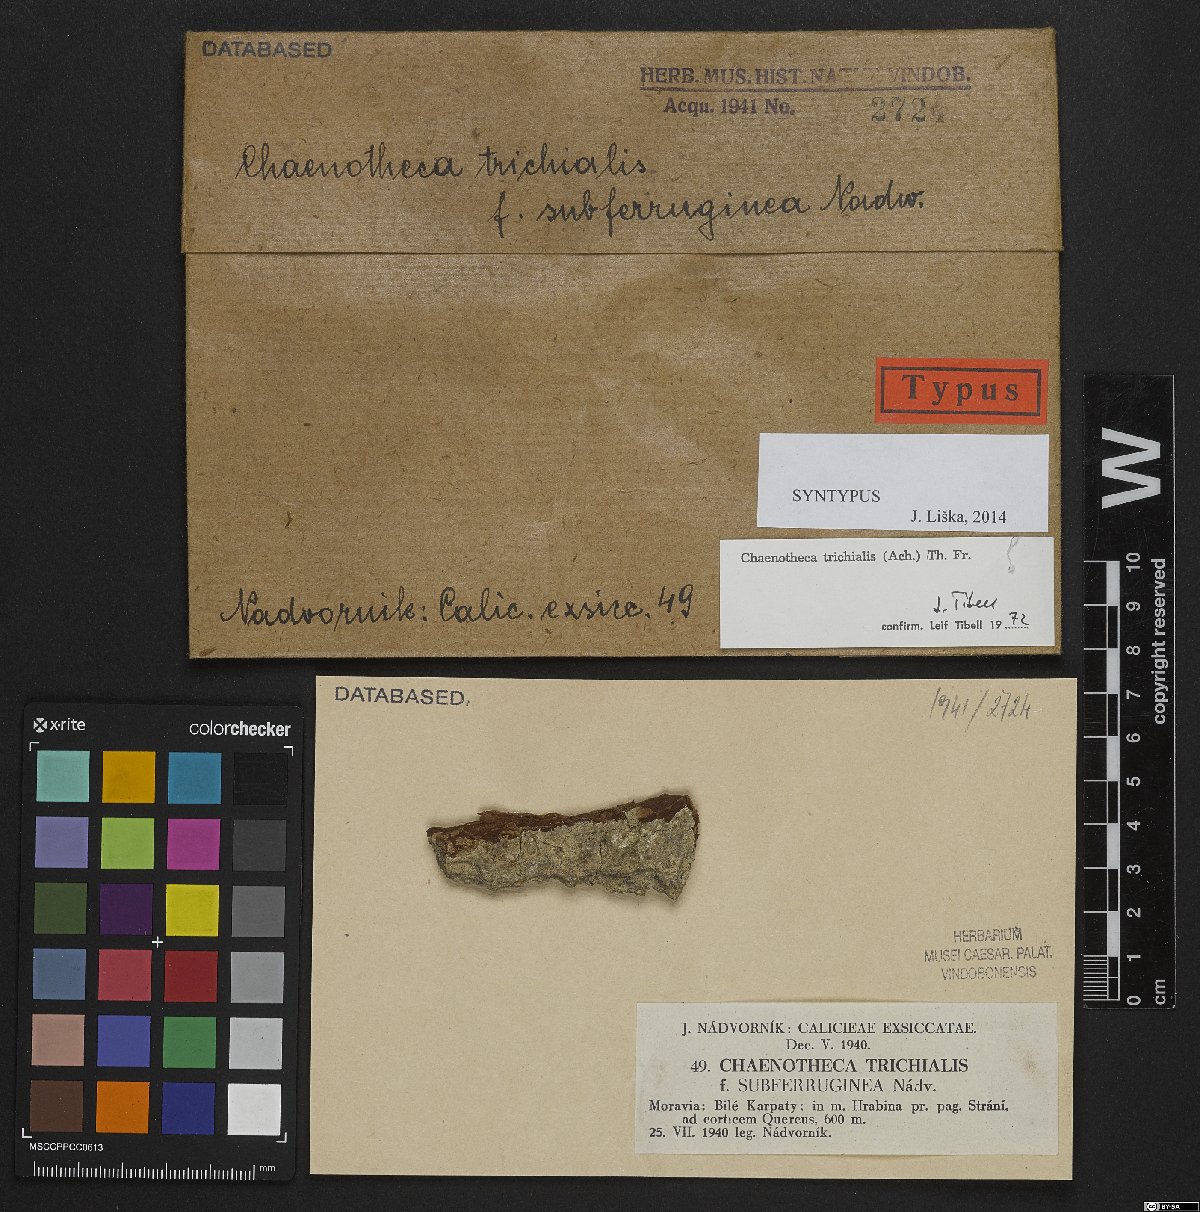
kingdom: Fungi
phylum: Ascomycota
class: Coniocybomycetes
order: Coniocybales
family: Coniocybaceae
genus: Chaenotheca
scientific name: Chaenotheca trichialis
